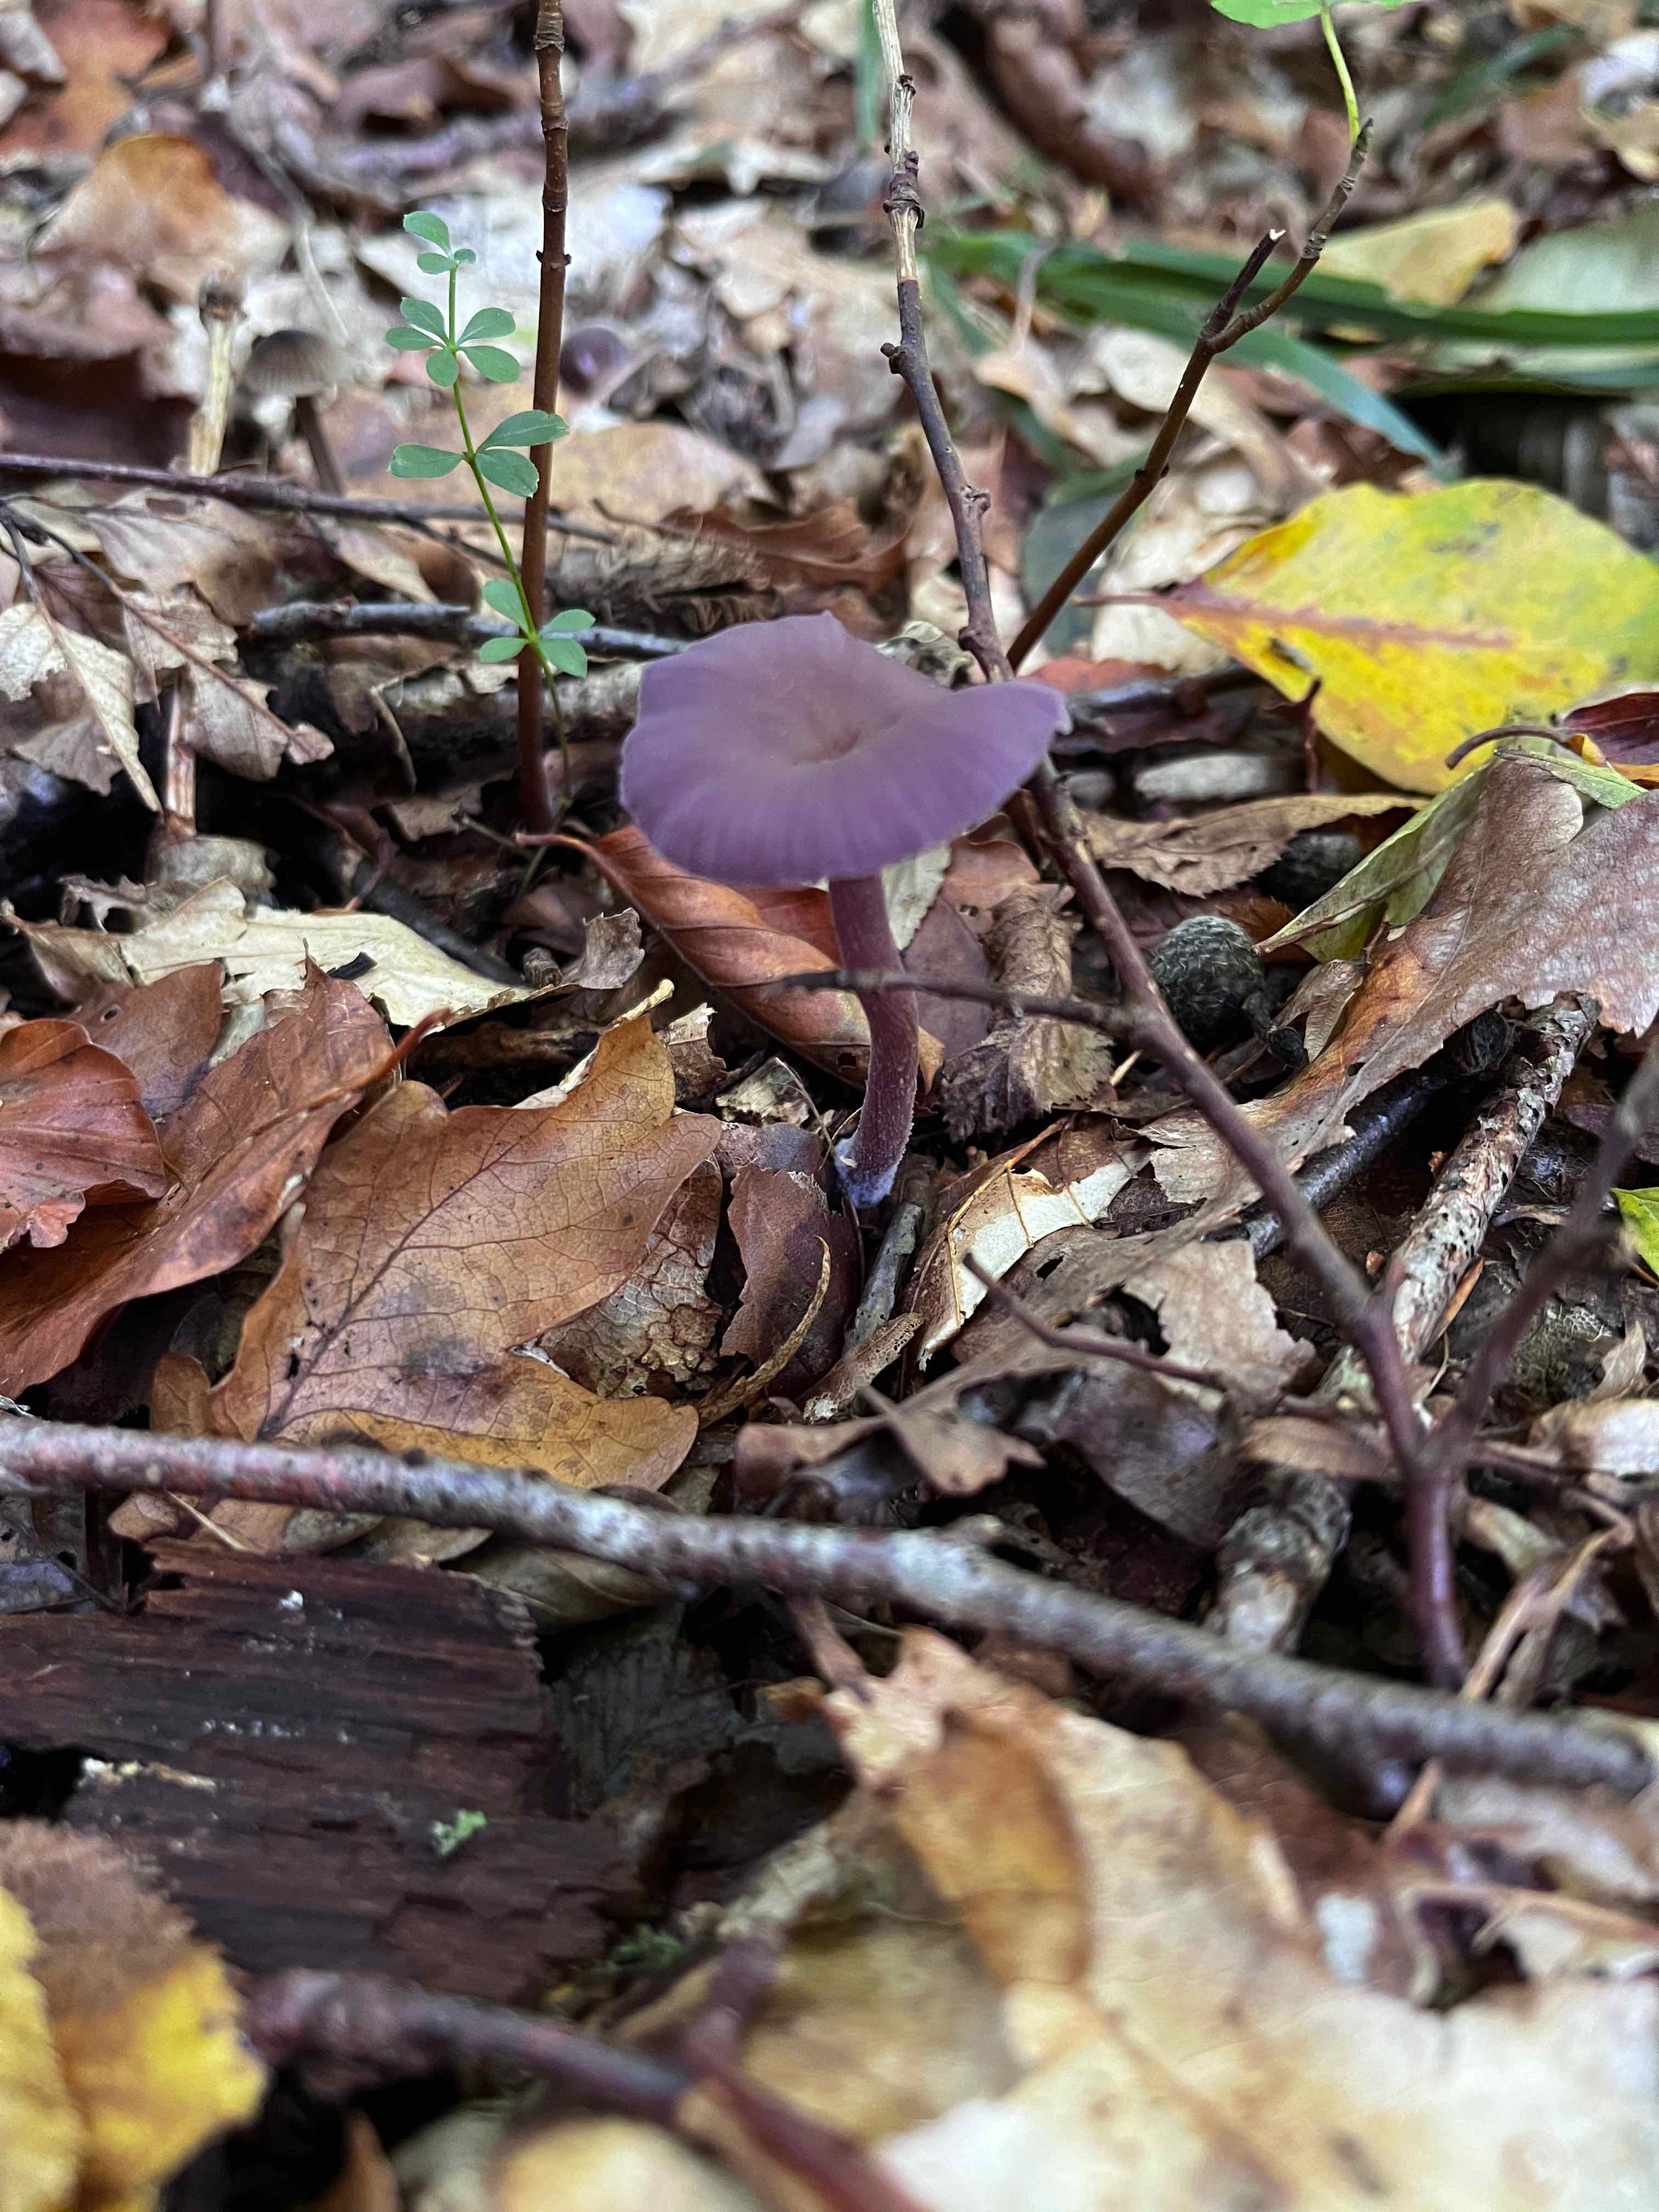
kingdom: Fungi
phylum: Basidiomycota
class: Agaricomycetes
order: Agaricales
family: Hydnangiaceae
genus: Laccaria
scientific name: Laccaria amethystina
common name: violet ametysthat
